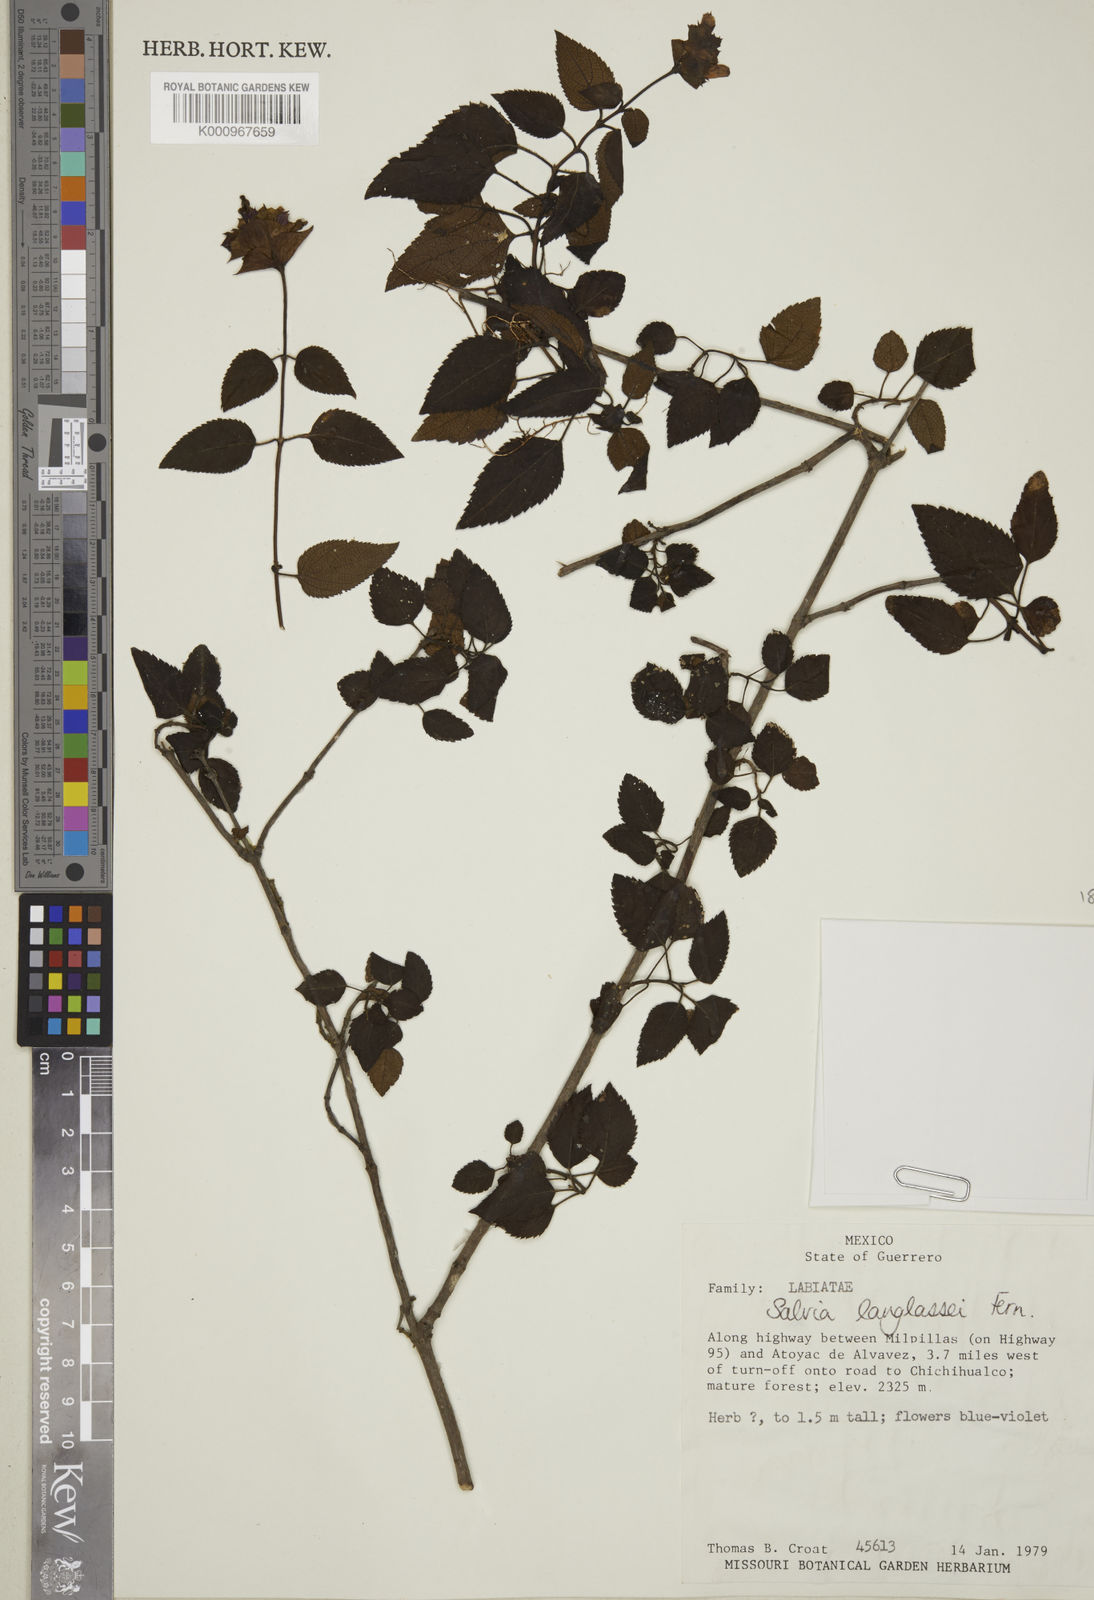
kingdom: Plantae
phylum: Tracheophyta
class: Magnoliopsida
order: Lamiales
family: Lamiaceae
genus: Salvia
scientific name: Salvia confertispicata
